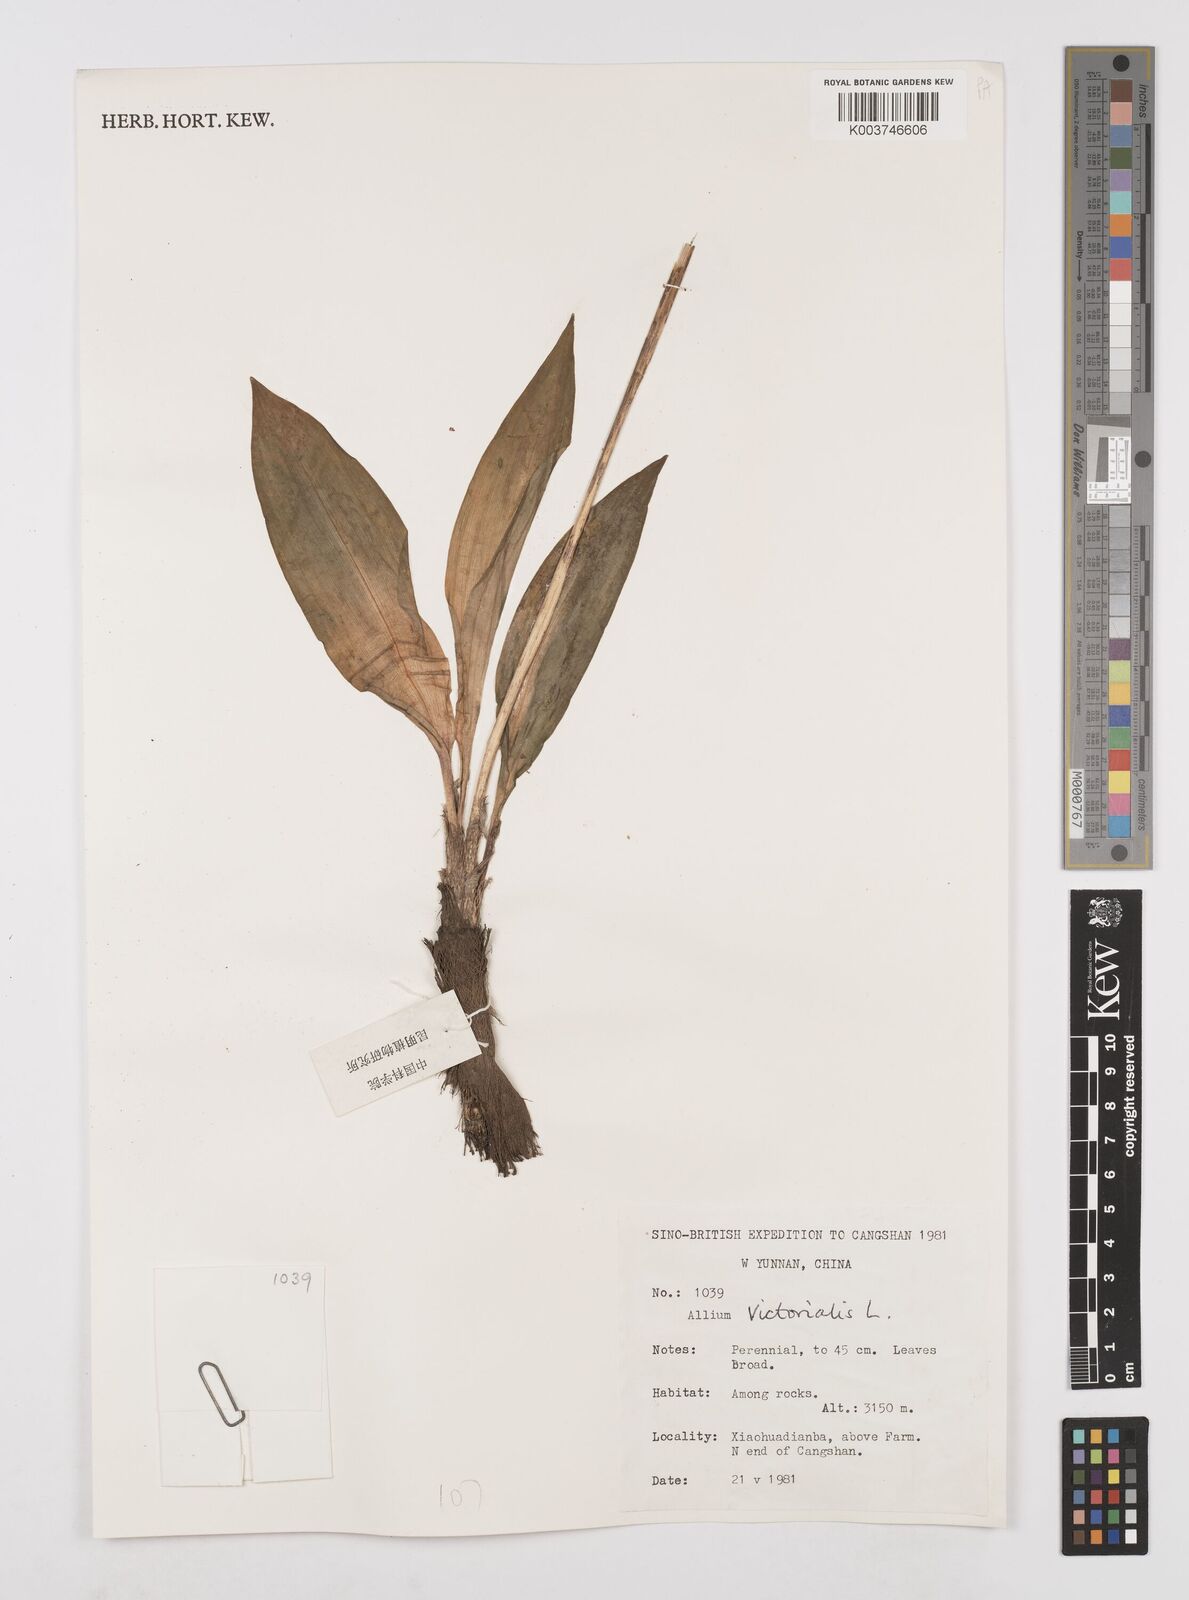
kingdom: Plantae
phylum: Tracheophyta
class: Liliopsida
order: Asparagales
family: Amaryllidaceae
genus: Allium
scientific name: Allium victorialis
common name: Alpine leek
